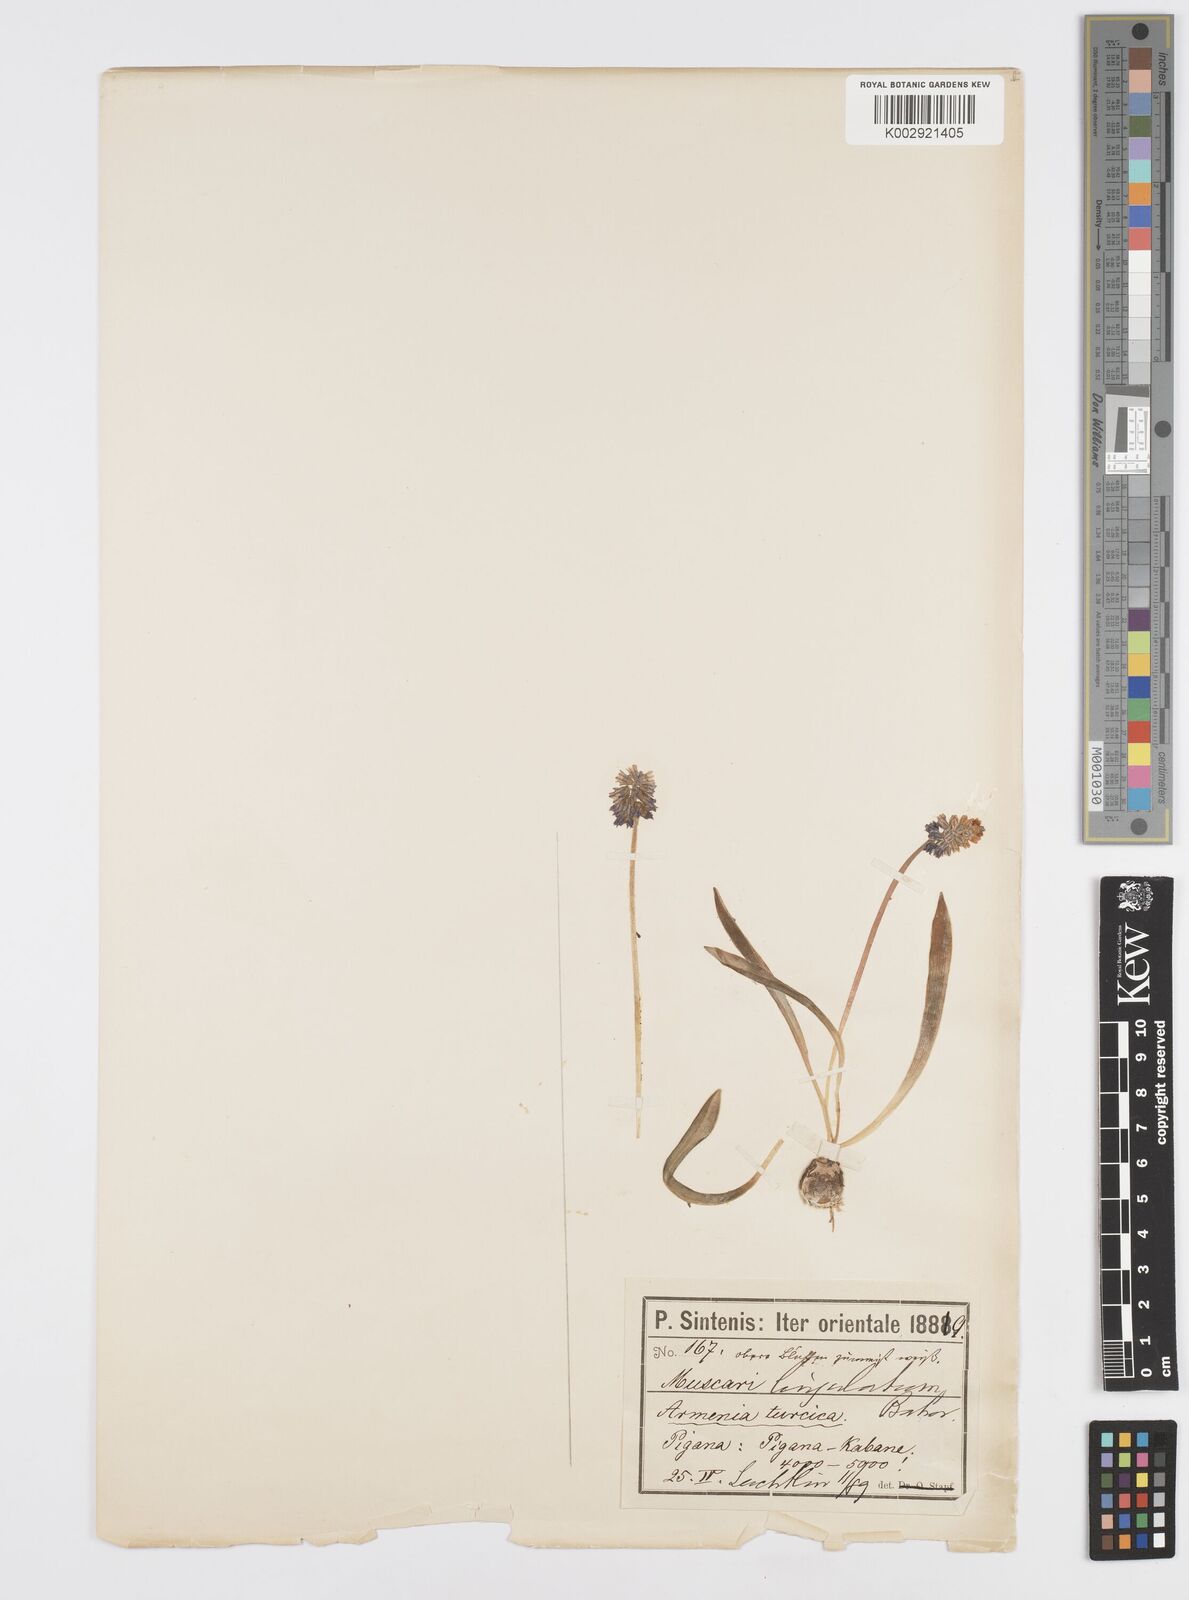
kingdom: Plantae
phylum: Tracheophyta
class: Liliopsida
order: Asparagales
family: Asparagaceae
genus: Muscari
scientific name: Muscari azureum
